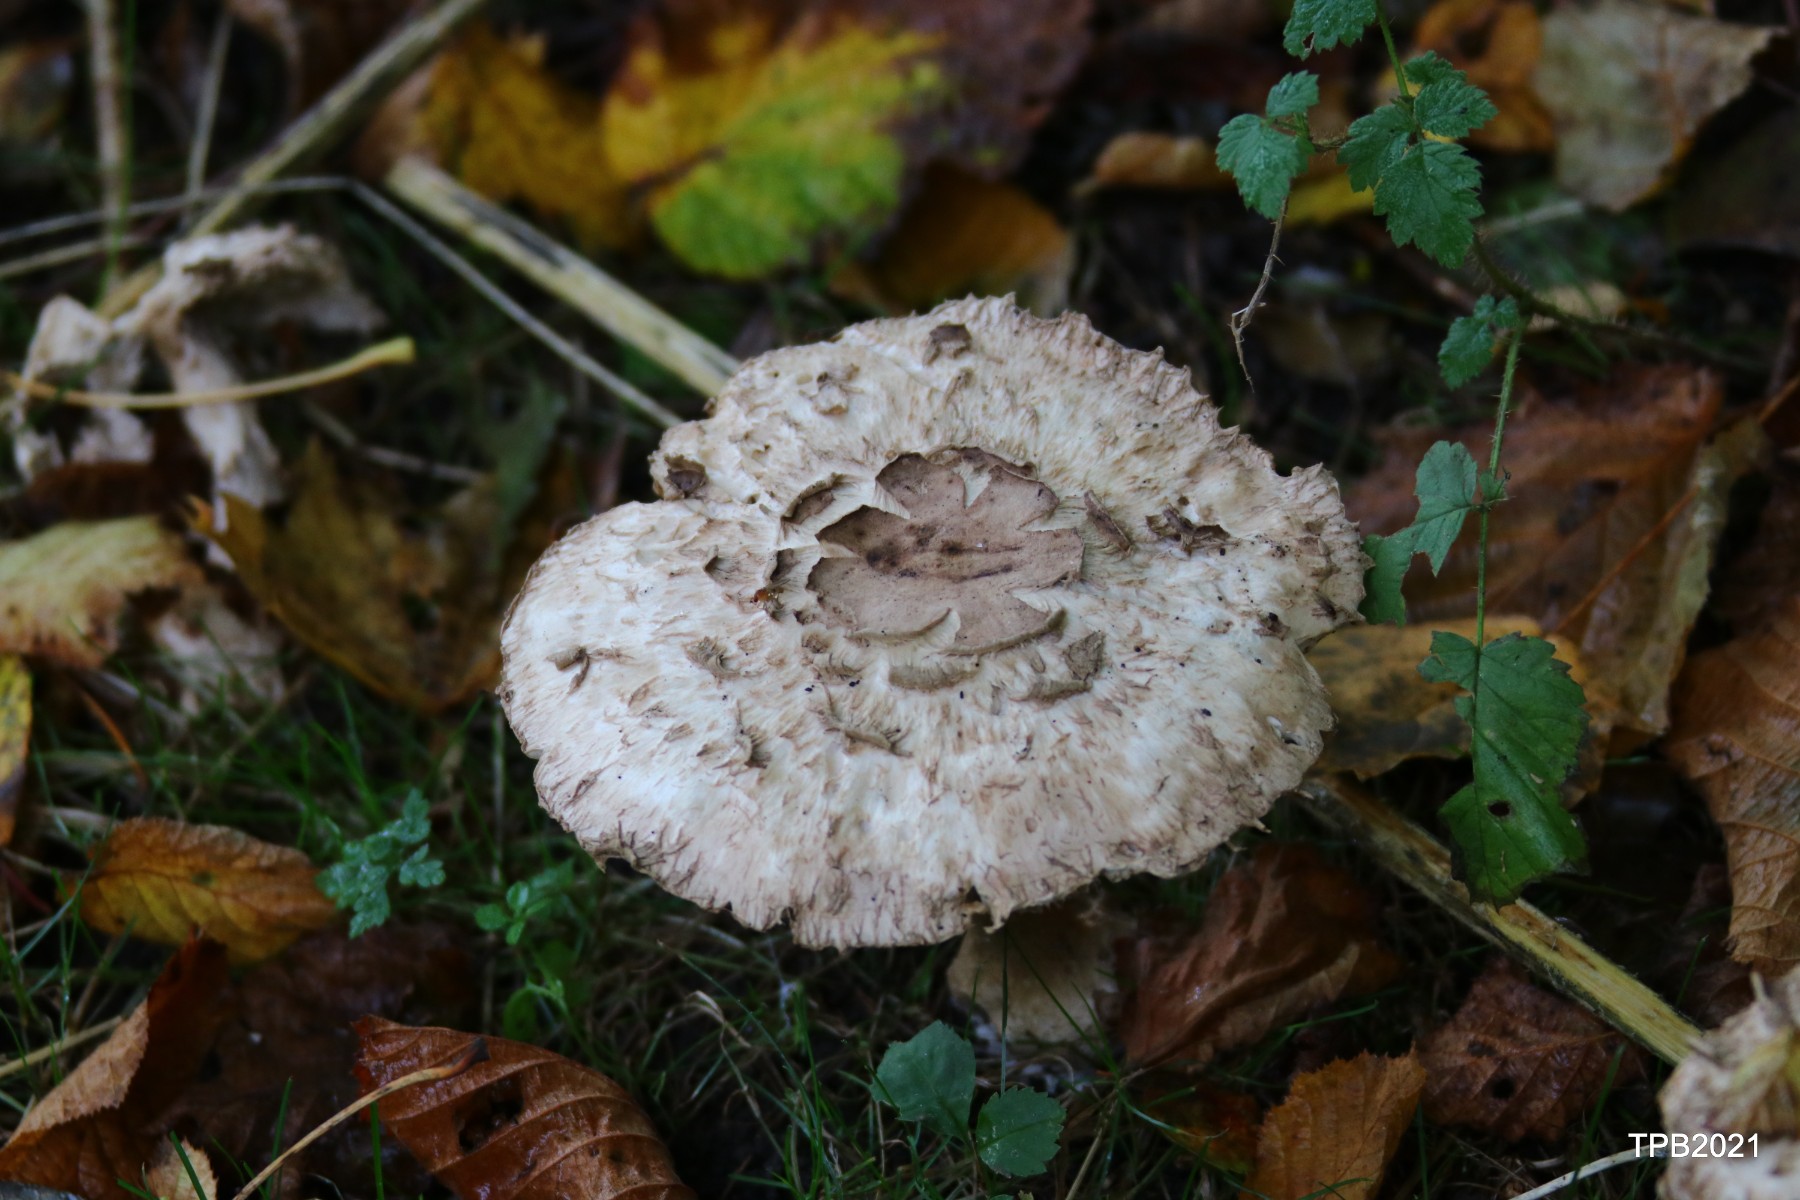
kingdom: Fungi
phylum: Basidiomycota
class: Agaricomycetes
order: Agaricales
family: Agaricaceae
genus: Chlorophyllum
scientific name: Chlorophyllum
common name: rabarberhat
